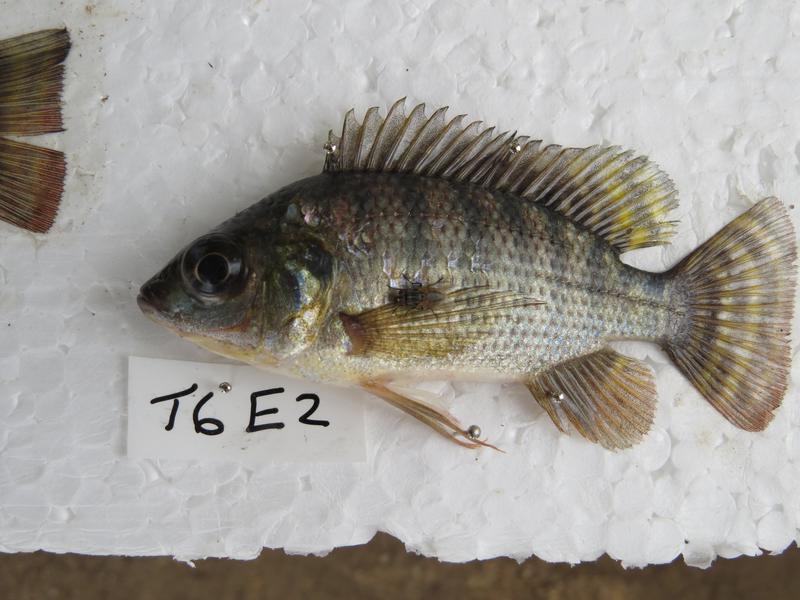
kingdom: Animalia
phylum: Chordata
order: Perciformes
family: Cichlidae
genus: Oreochromis
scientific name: Oreochromis niloticus
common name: Nile tilapia
